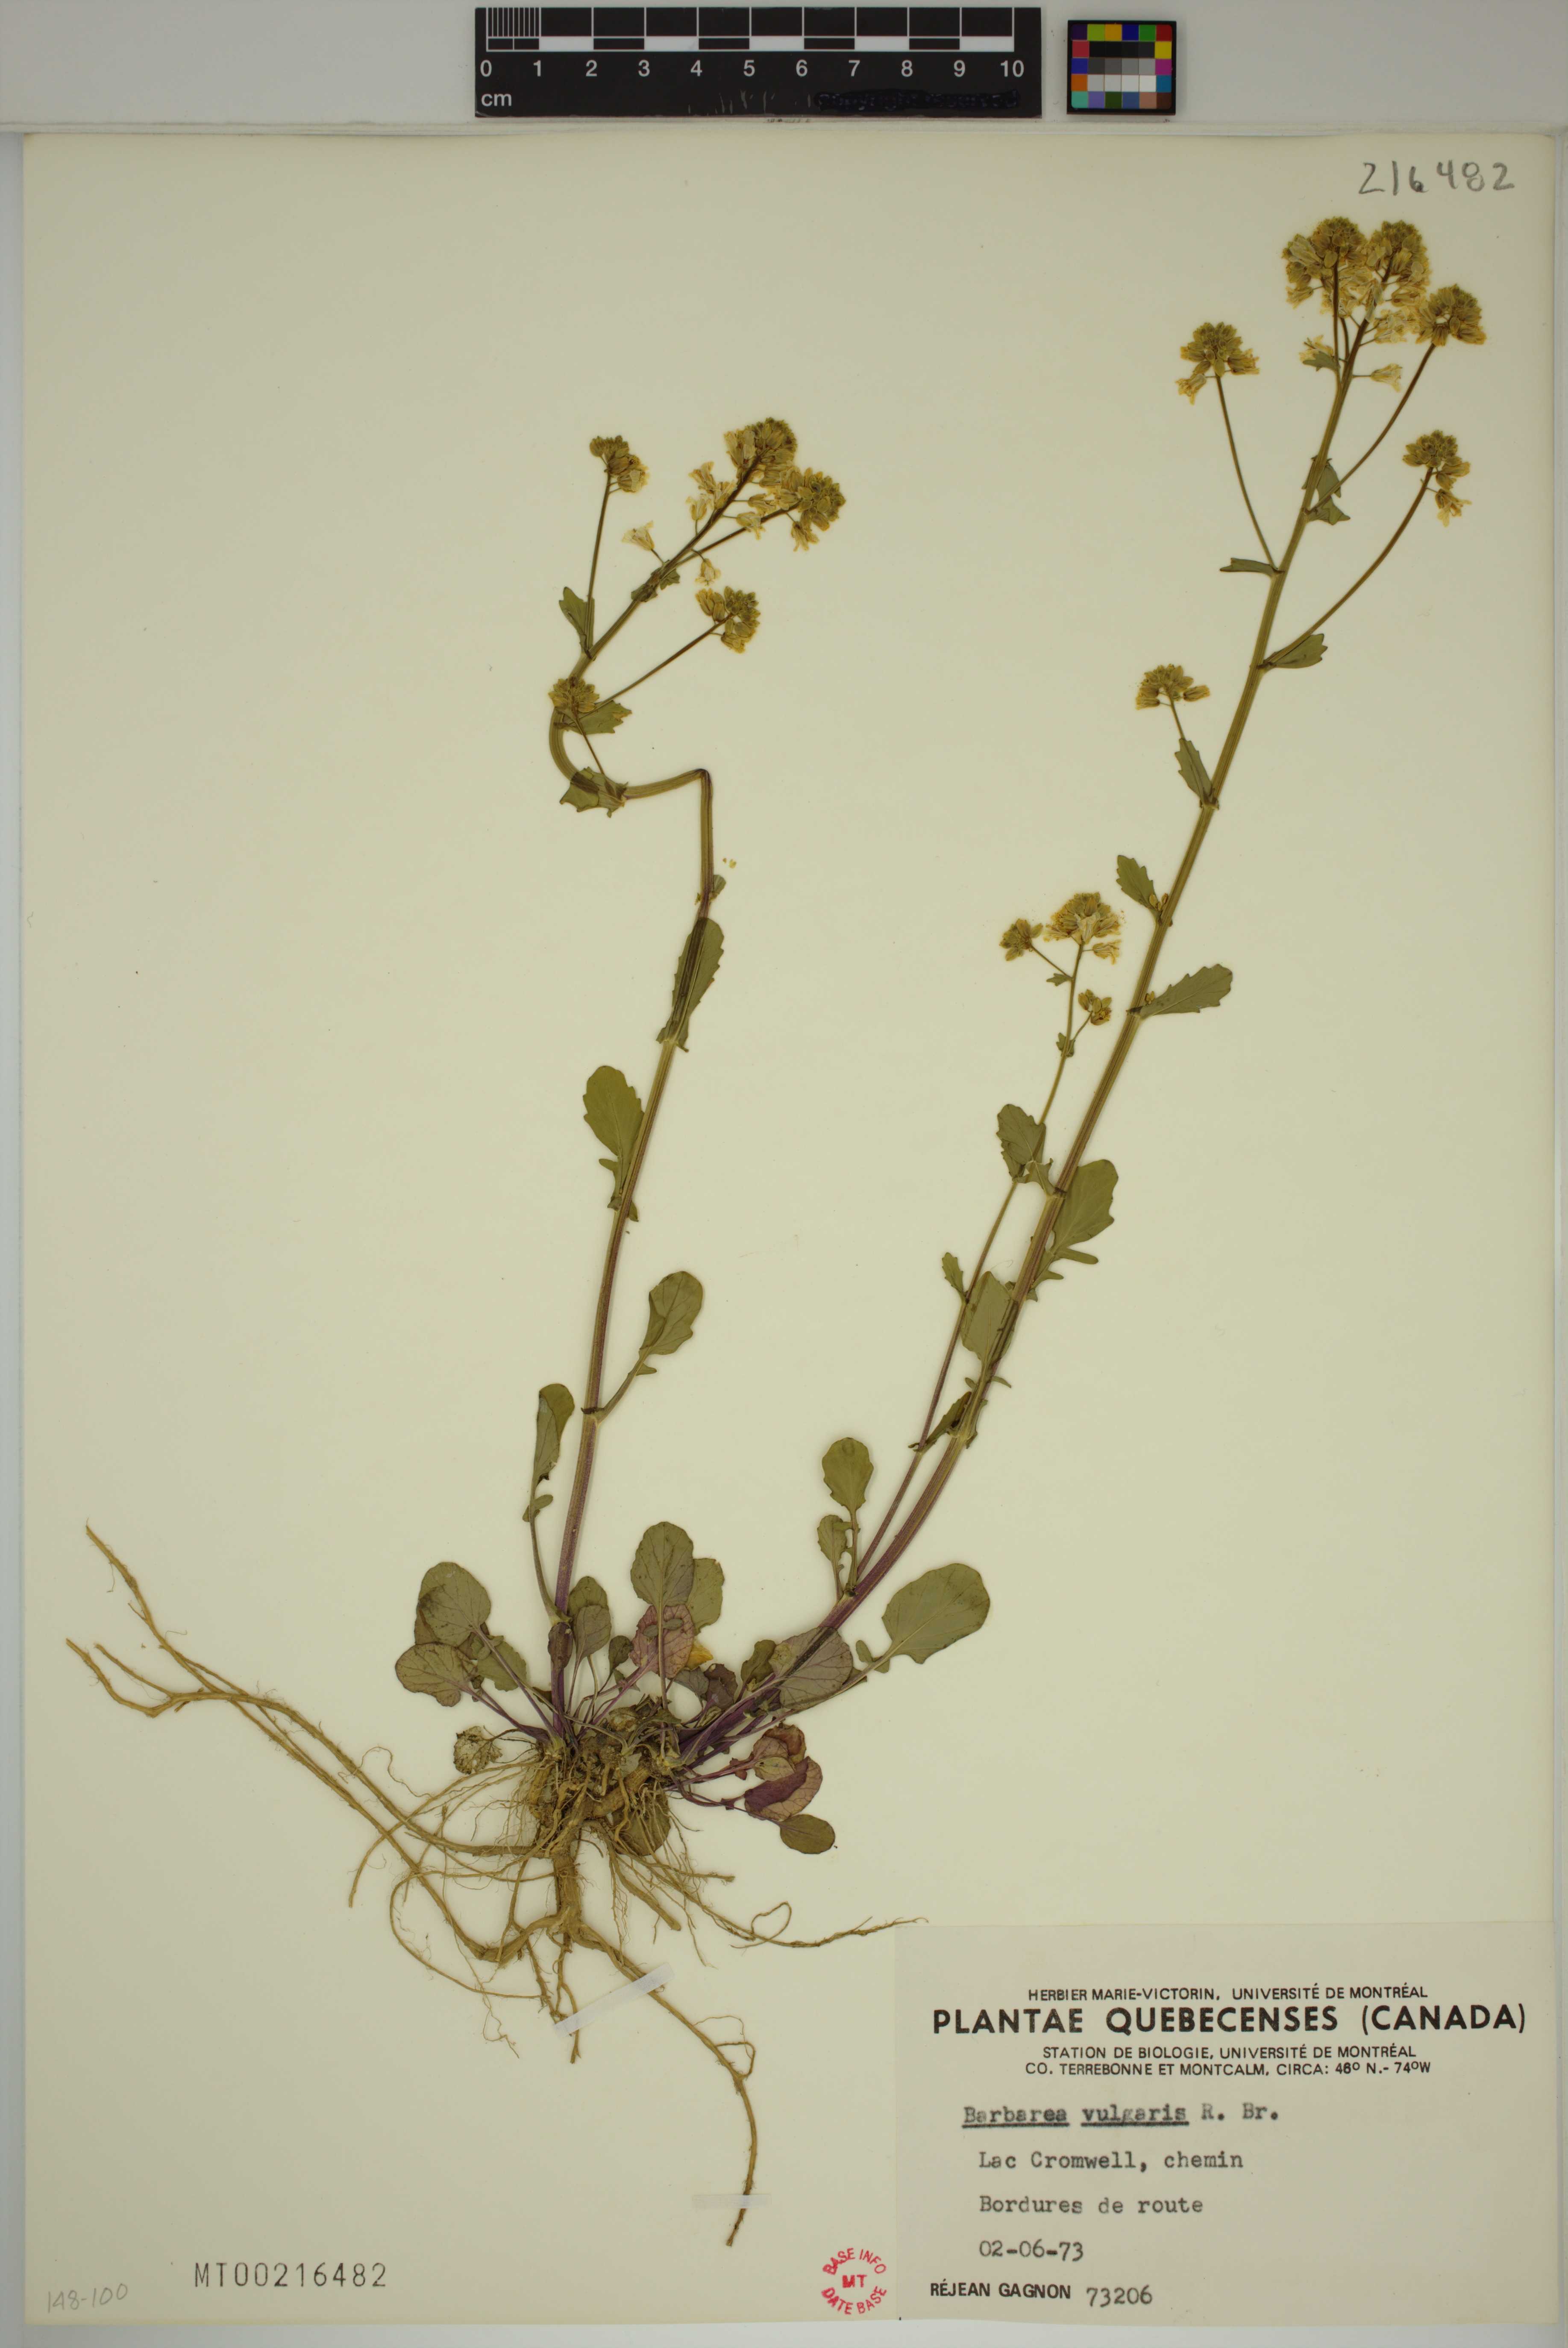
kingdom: Plantae
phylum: Tracheophyta
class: Magnoliopsida
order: Brassicales
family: Brassicaceae
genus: Barbarea
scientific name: Barbarea vulgaris
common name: Cressy-greens
